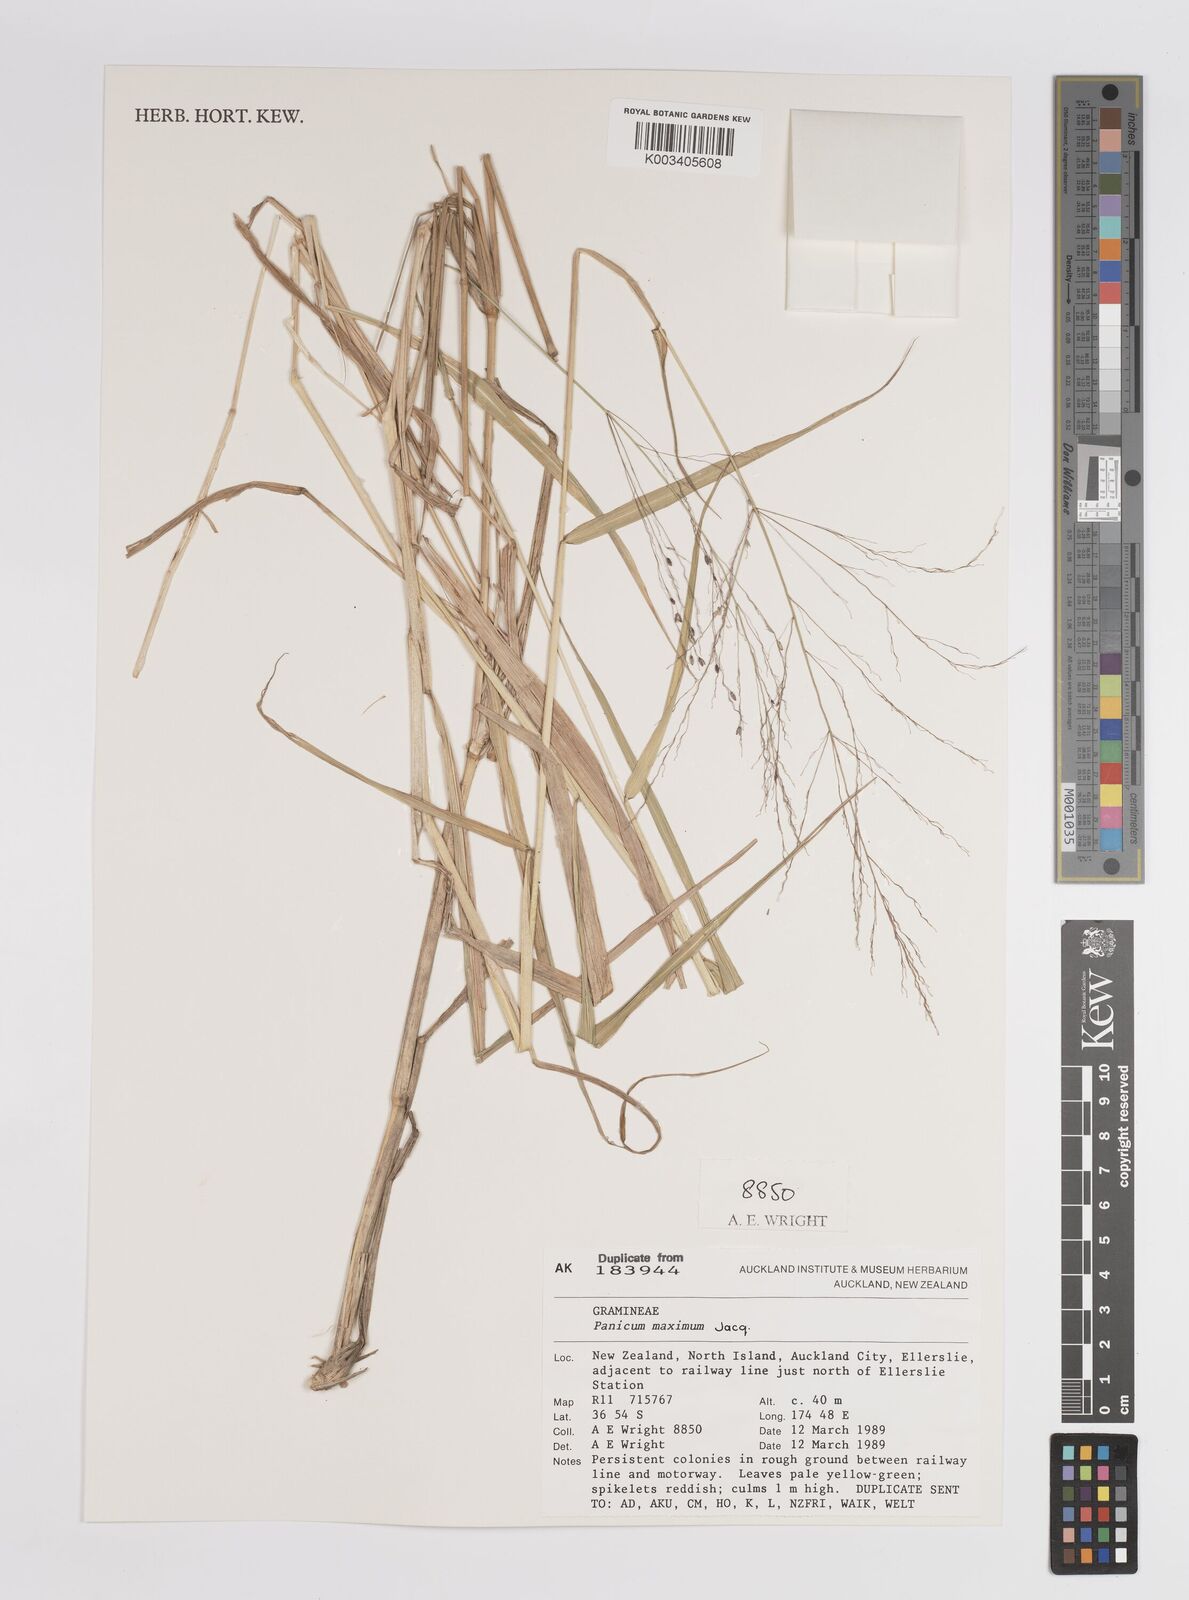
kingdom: Plantae
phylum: Tracheophyta
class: Liliopsida
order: Poales
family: Poaceae
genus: Megathyrsus
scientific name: Megathyrsus maximus
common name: Guineagrass
